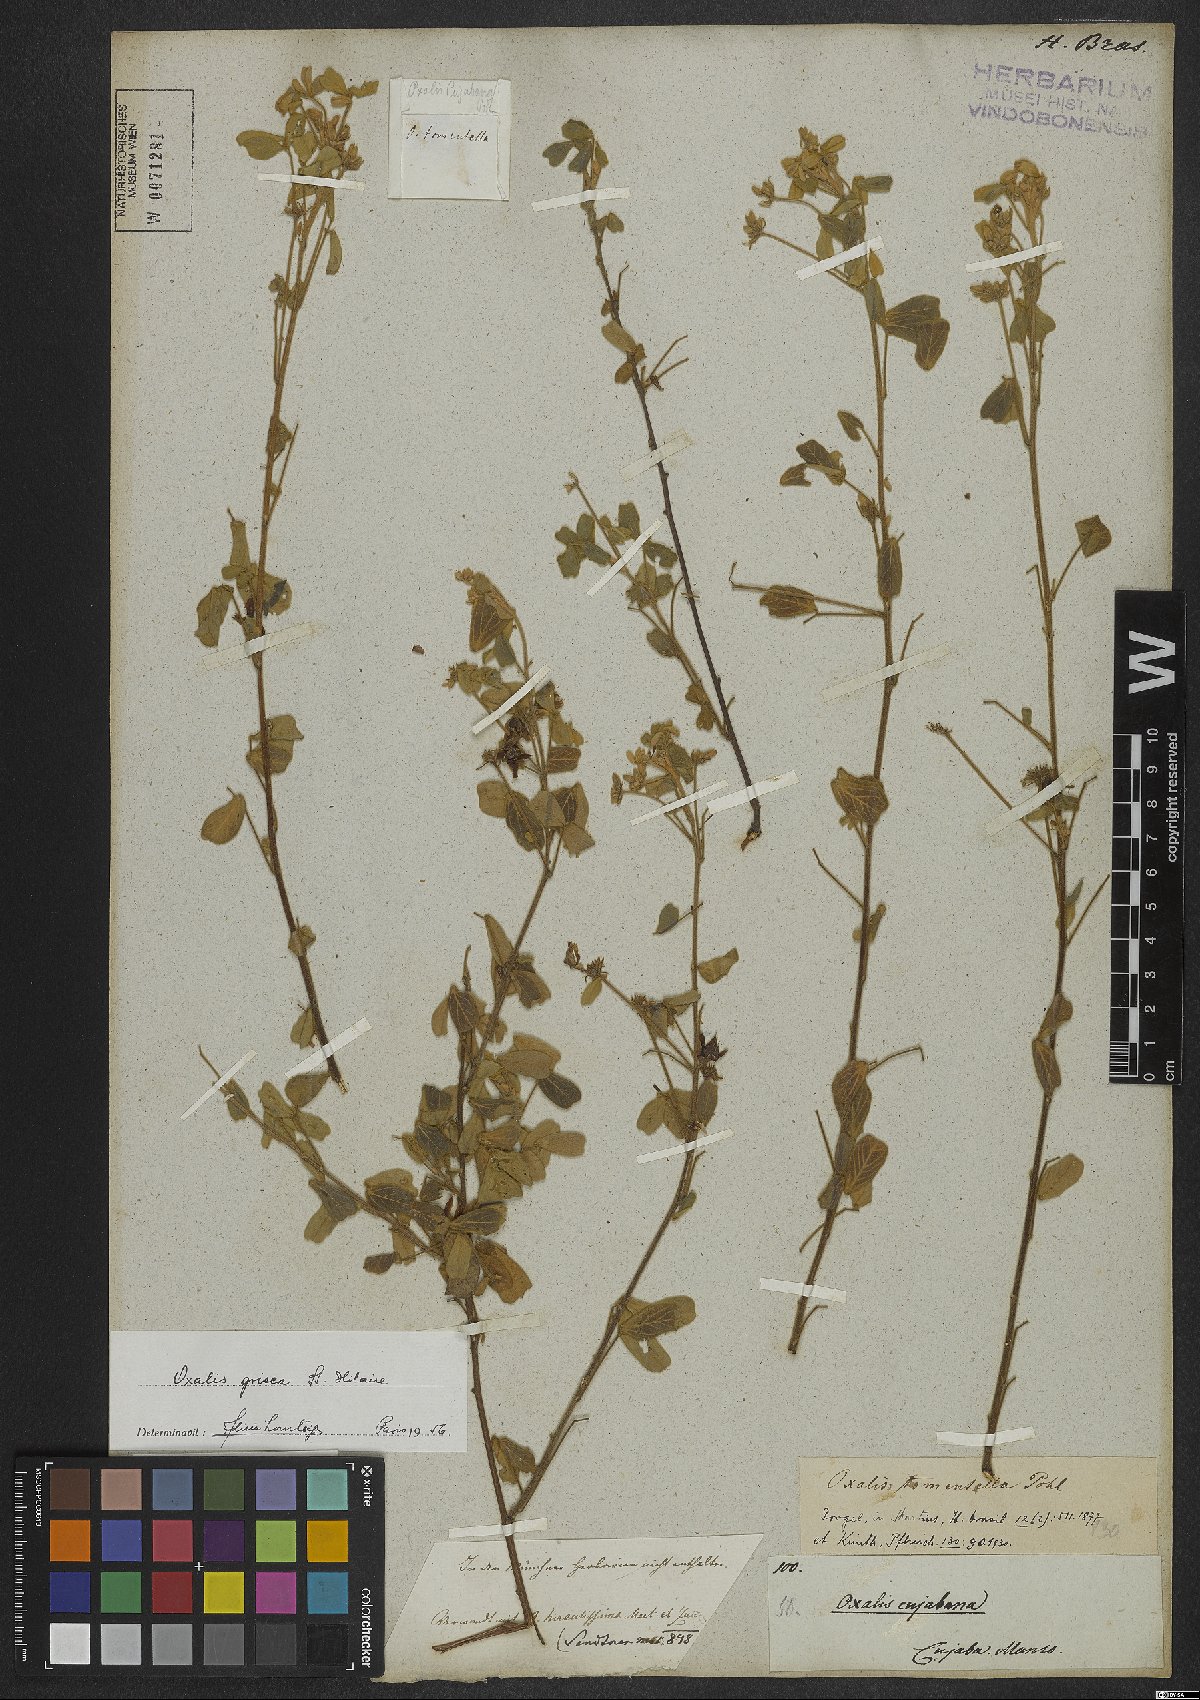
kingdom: Plantae
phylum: Tracheophyta
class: Magnoliopsida
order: Oxalidales
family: Oxalidaceae
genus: Oxalis
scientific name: Oxalis grisea
